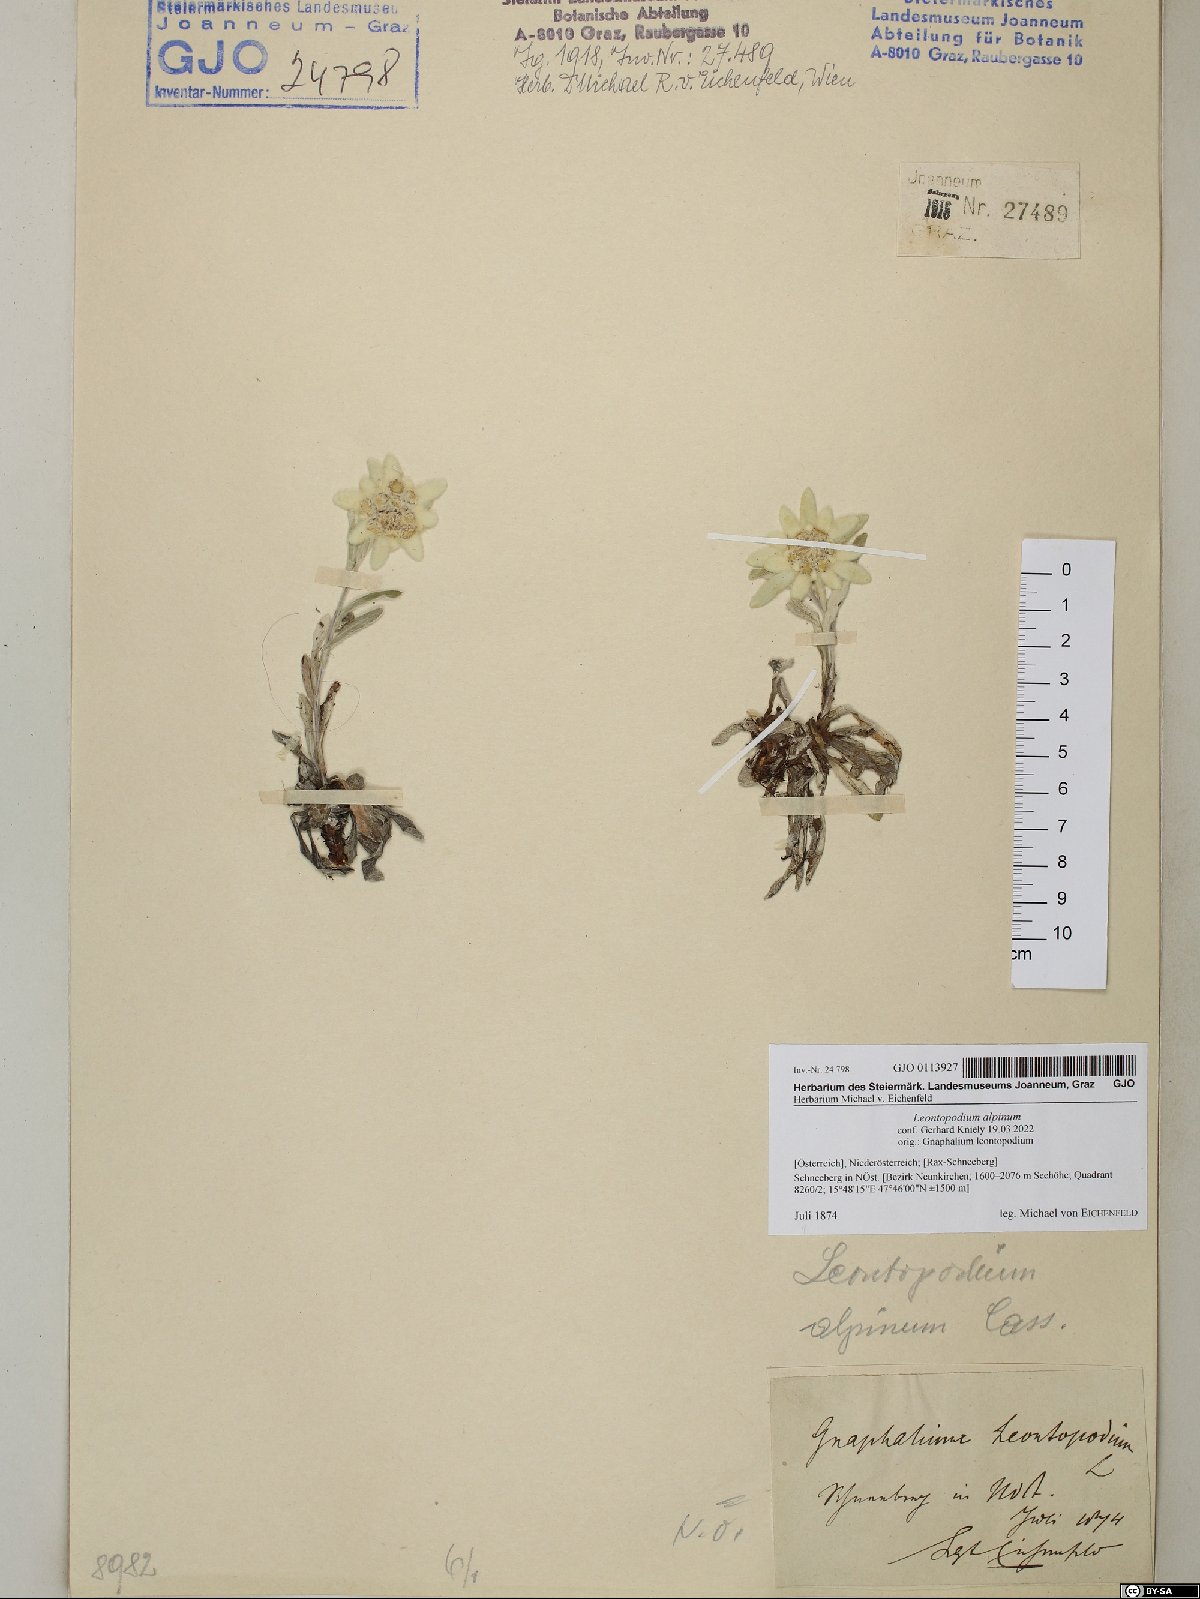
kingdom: Plantae
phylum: Tracheophyta
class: Magnoliopsida
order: Asterales
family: Asteraceae
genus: Leontopodium
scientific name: Leontopodium nivale
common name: Edelweiss
